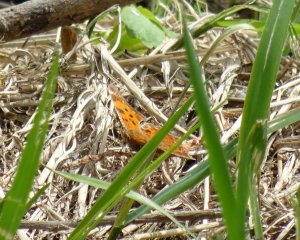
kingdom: Animalia
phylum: Arthropoda
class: Insecta
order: Lepidoptera
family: Nymphalidae
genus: Polygonia
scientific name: Polygonia
